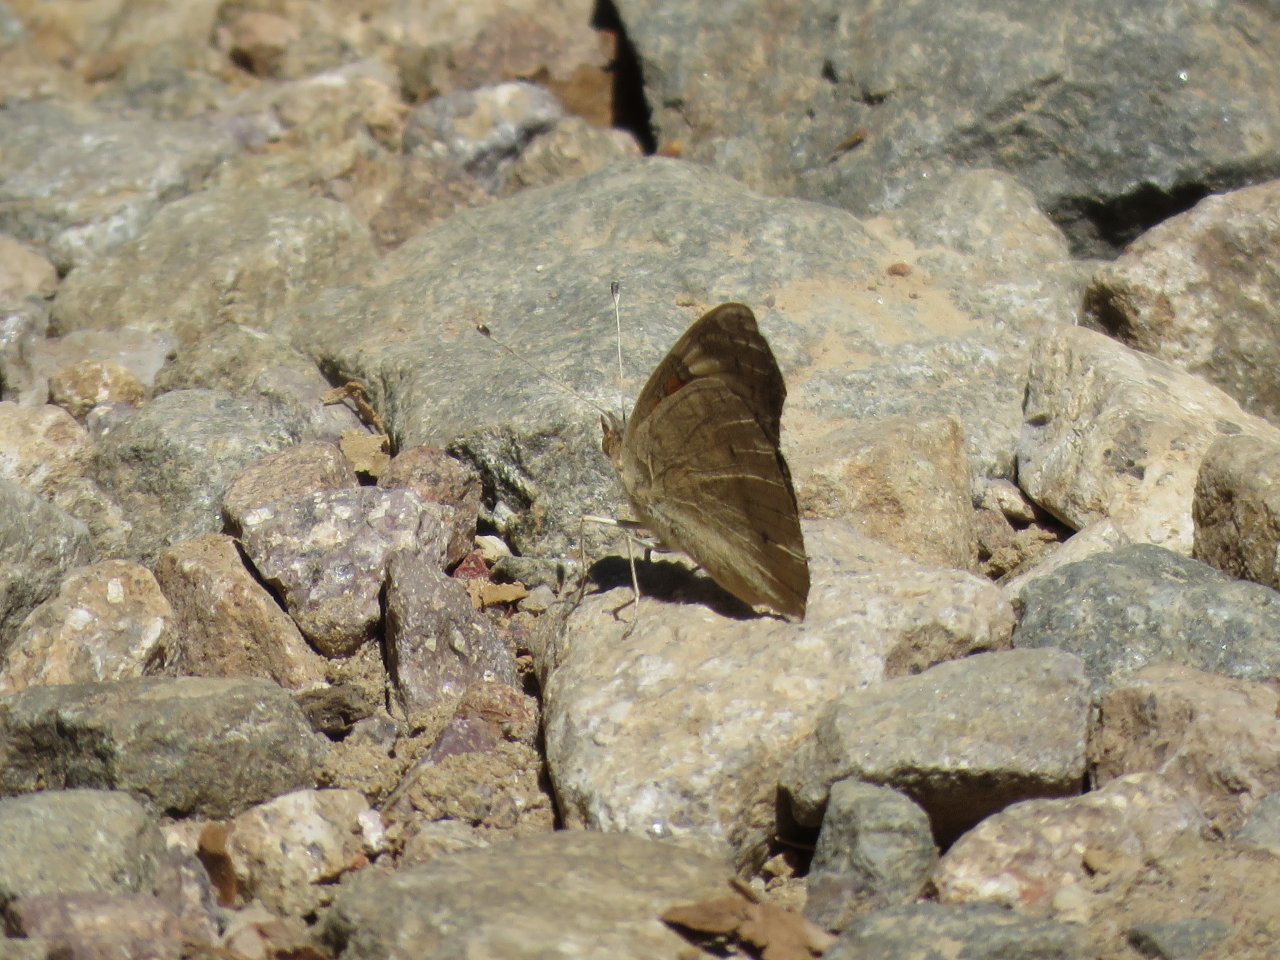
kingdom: Animalia
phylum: Arthropoda
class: Insecta
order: Lepidoptera
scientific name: Lepidoptera
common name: Butterflies
